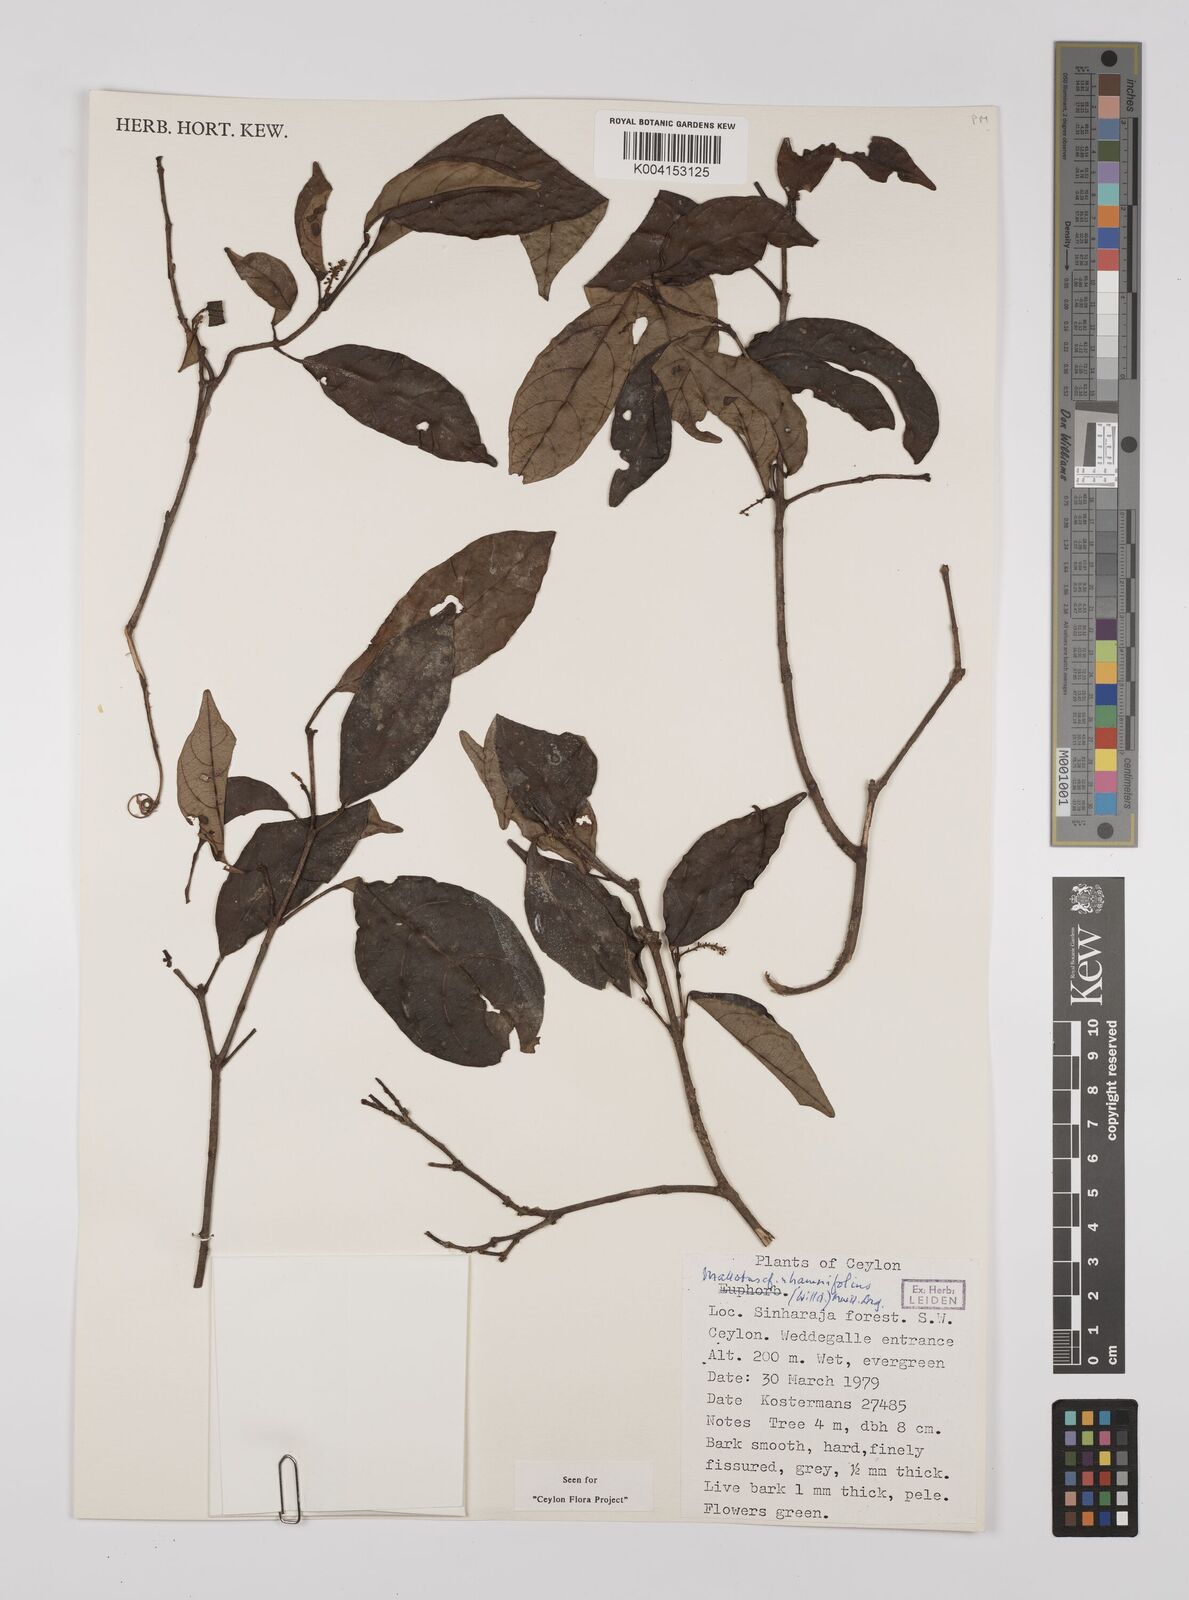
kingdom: Plantae
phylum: Tracheophyta
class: Magnoliopsida
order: Malpighiales
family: Euphorbiaceae
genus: Mallotus
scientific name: Mallotus rhamnifolius
